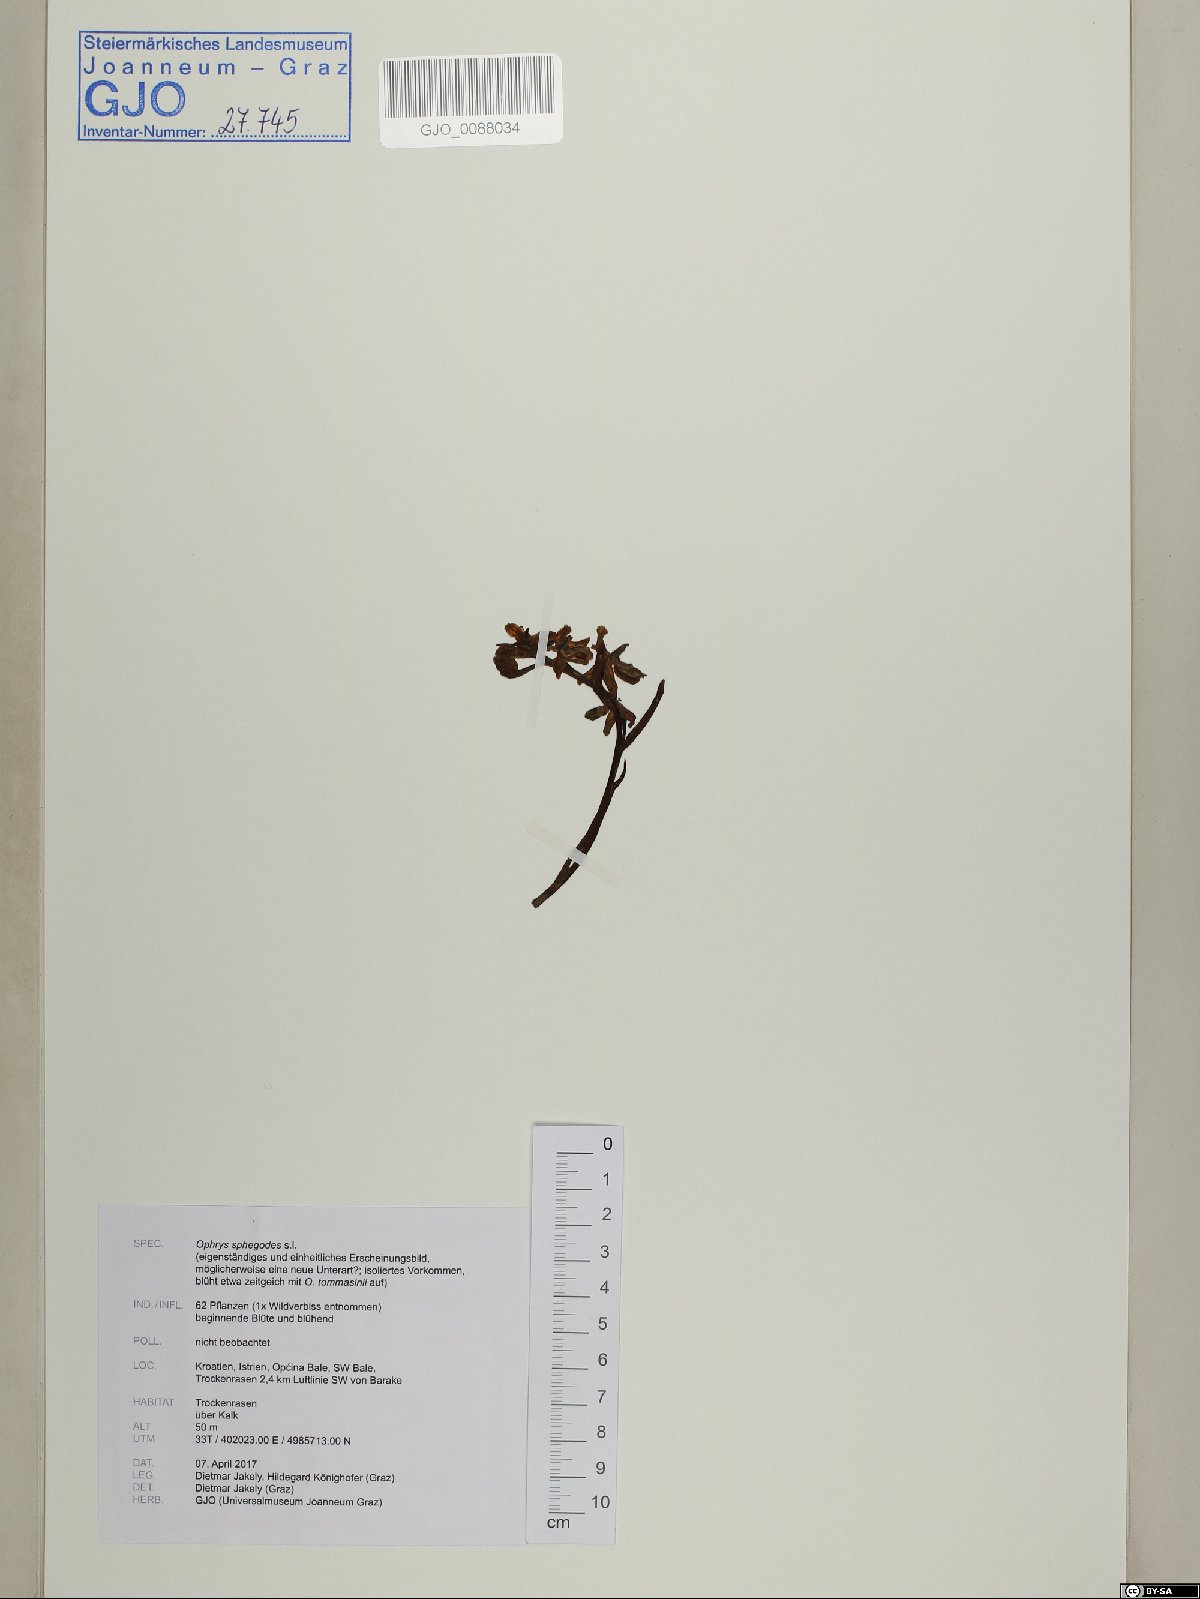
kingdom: Plantae
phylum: Tracheophyta
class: Liliopsida
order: Asparagales
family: Orchidaceae
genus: Ophrys
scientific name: Ophrys sphegodes
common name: Early spider-orchid
